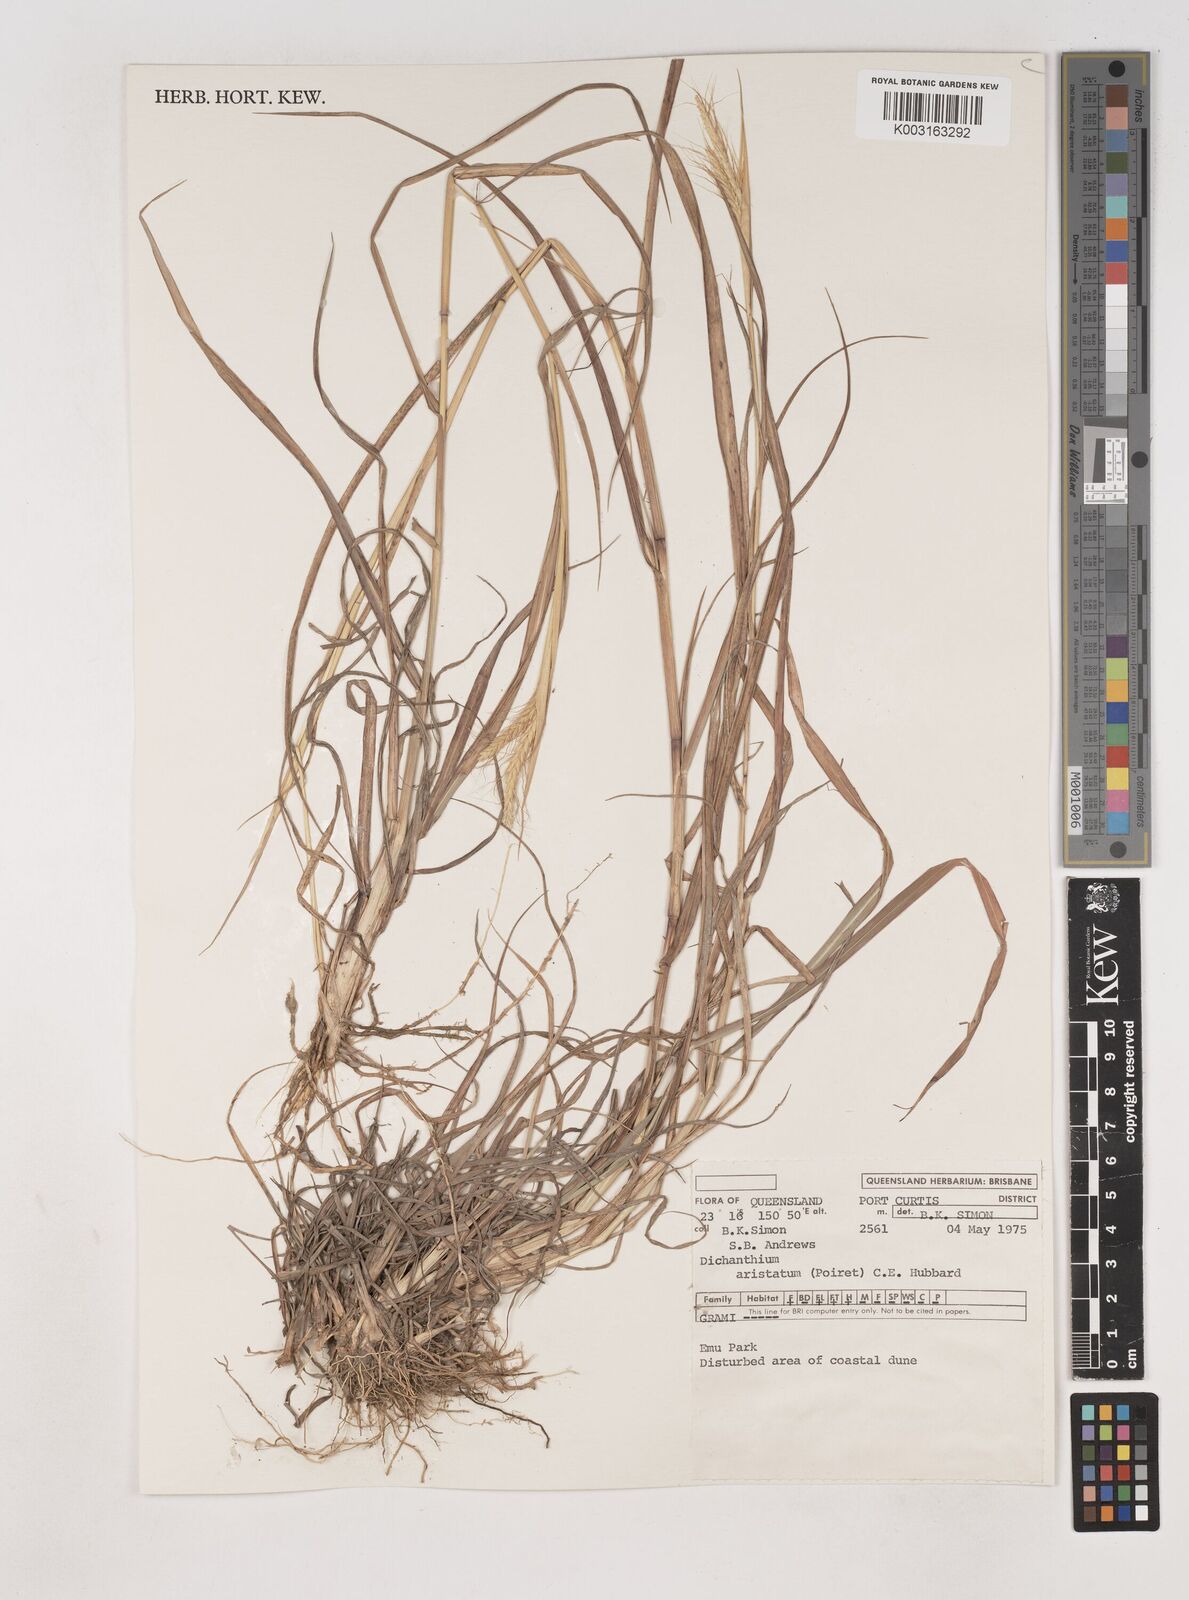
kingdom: Plantae
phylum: Tracheophyta
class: Liliopsida
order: Poales
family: Poaceae
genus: Dichanthium
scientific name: Dichanthium aristatum
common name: Angleton bluestem
